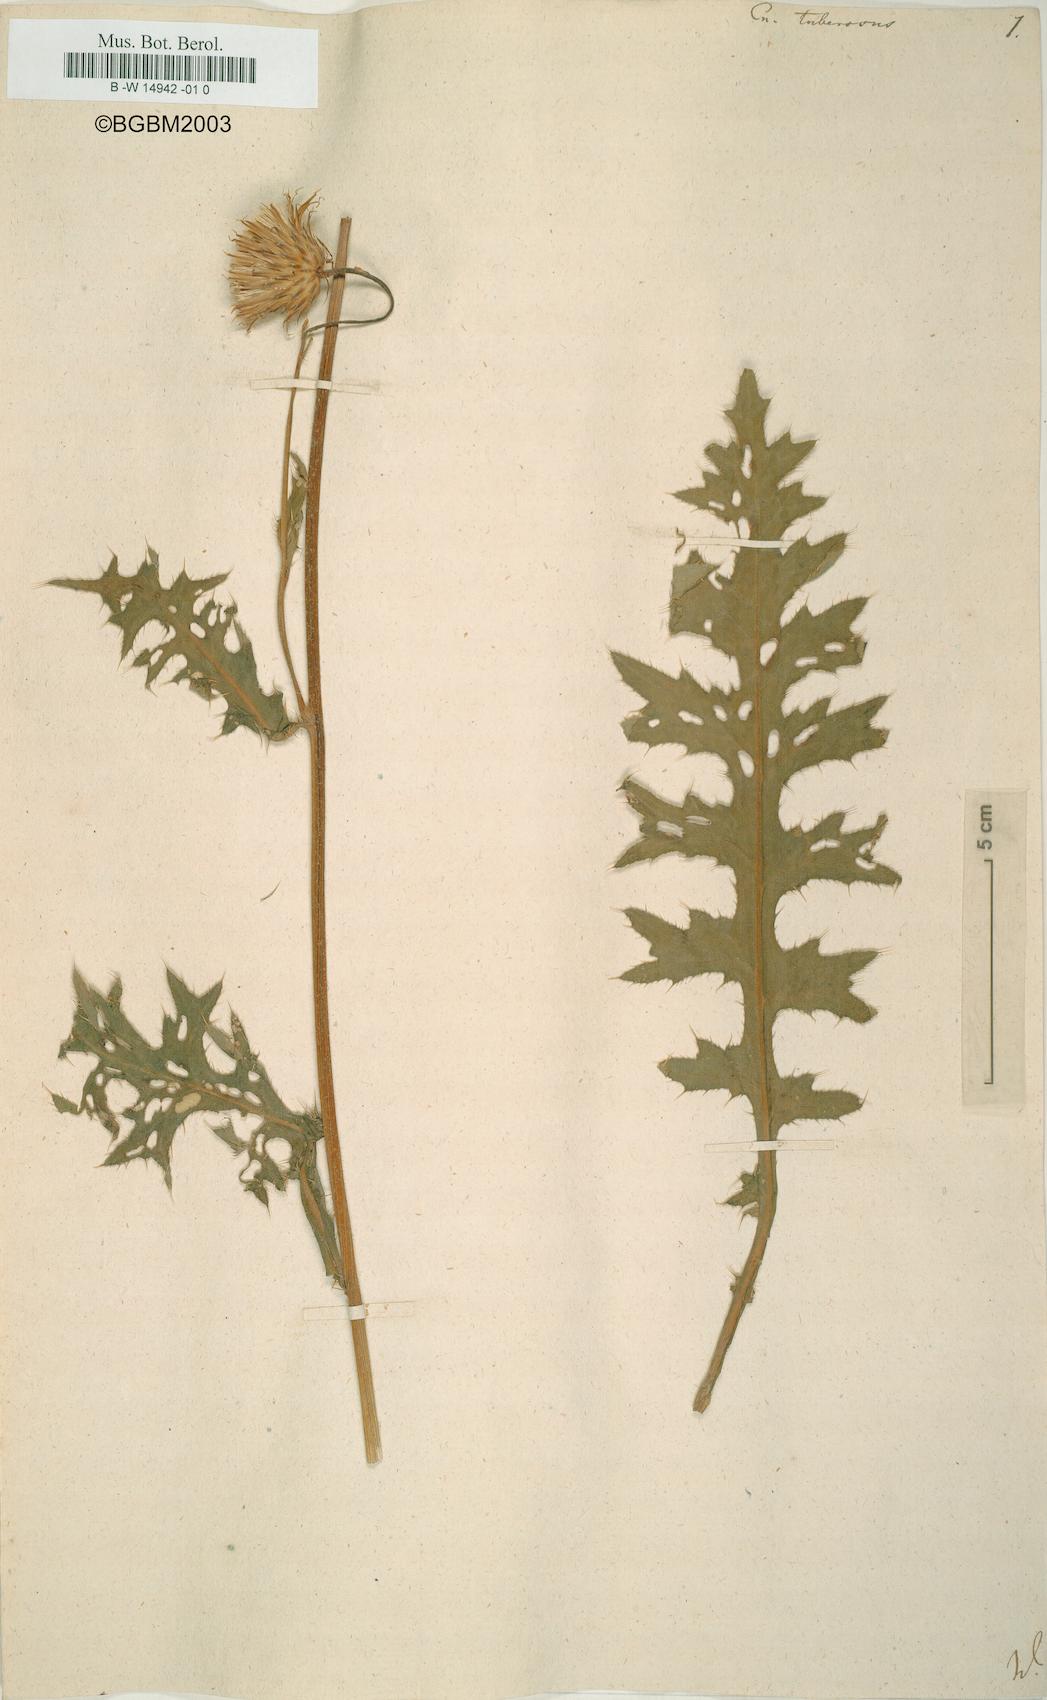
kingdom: Plantae
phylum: Tracheophyta
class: Magnoliopsida
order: Asterales
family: Asteraceae
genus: Cirsium
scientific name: Cirsium Cnicus tuberosus
